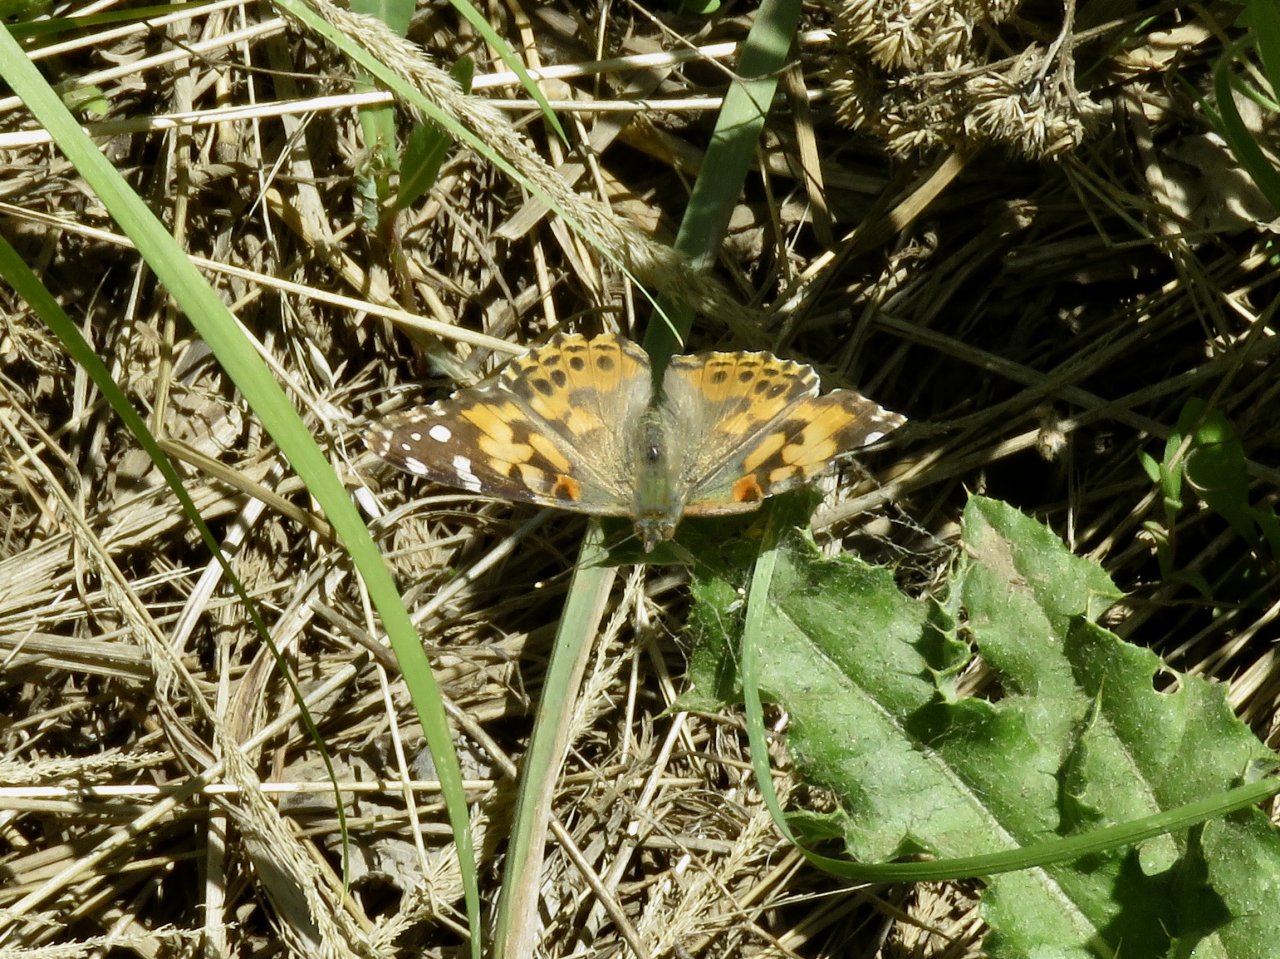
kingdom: Animalia
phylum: Arthropoda
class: Insecta
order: Lepidoptera
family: Nymphalidae
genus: Vanessa
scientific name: Vanessa cardui
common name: Painted Lady
